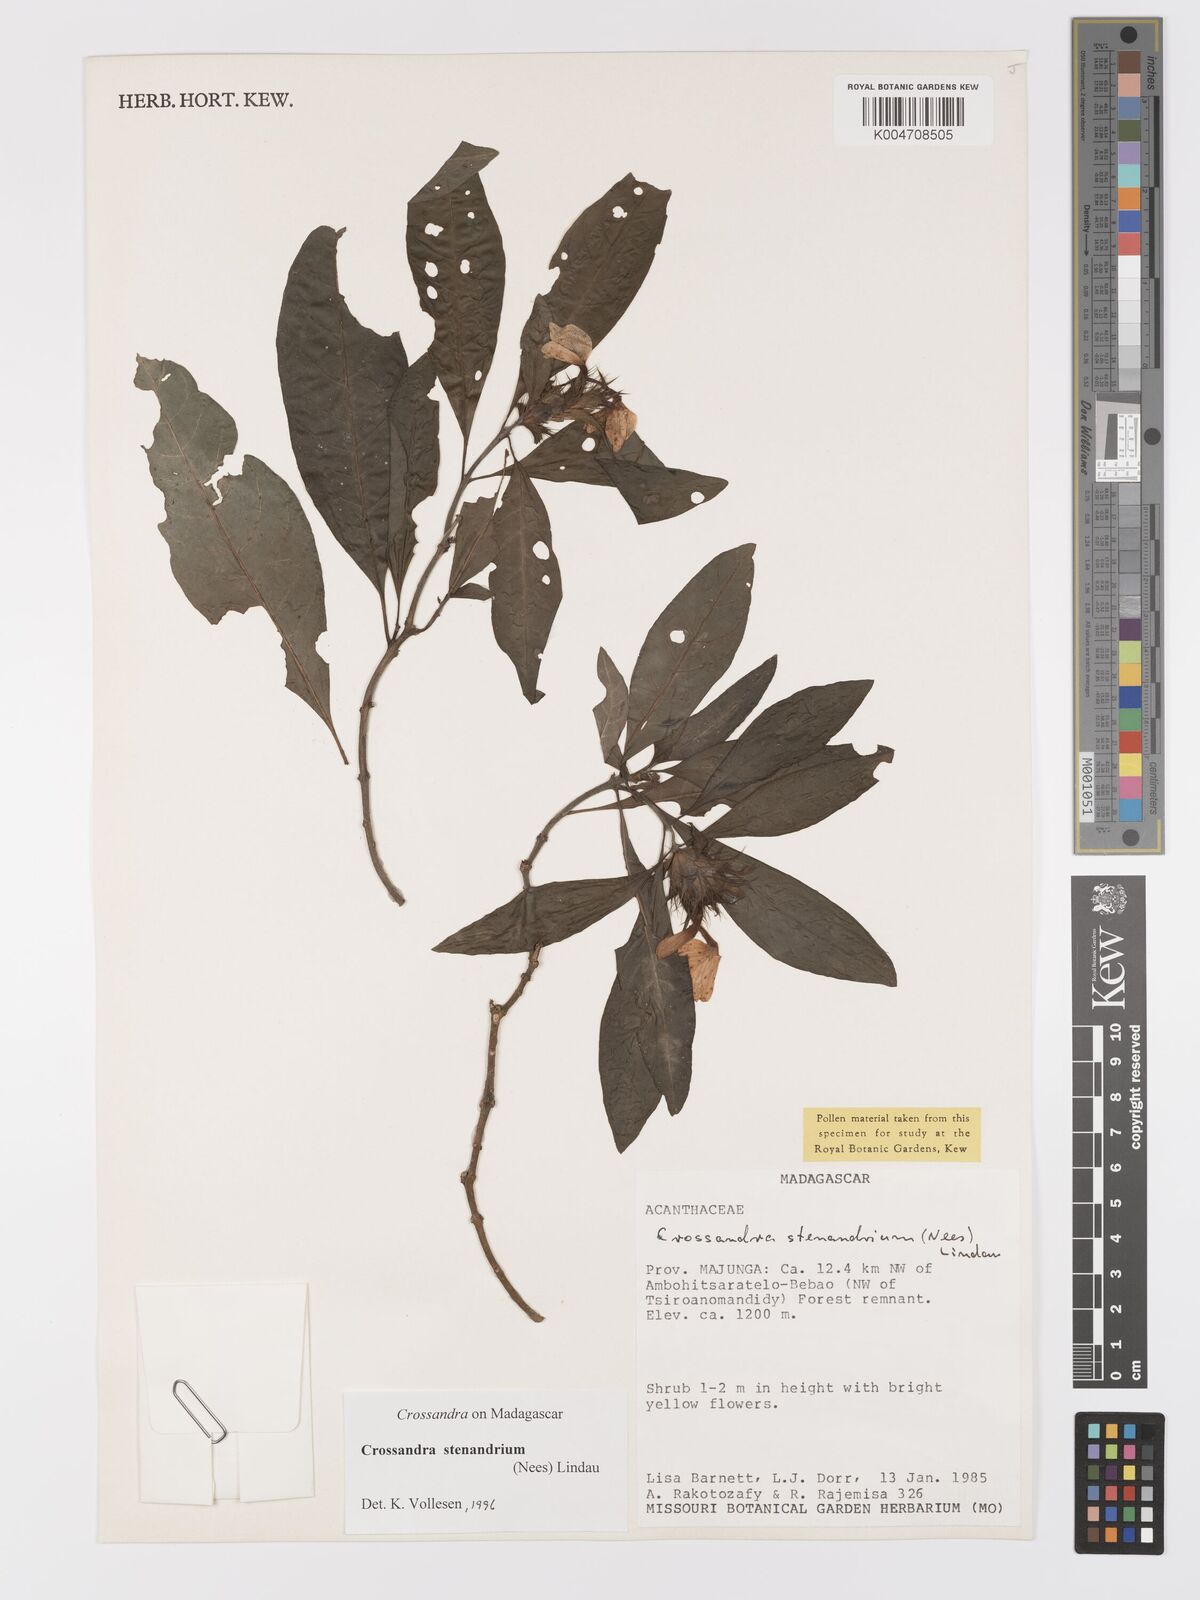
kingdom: Plantae
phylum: Tracheophyta
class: Magnoliopsida
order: Lamiales
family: Acanthaceae
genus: Crossandra
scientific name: Crossandra stenandrium
